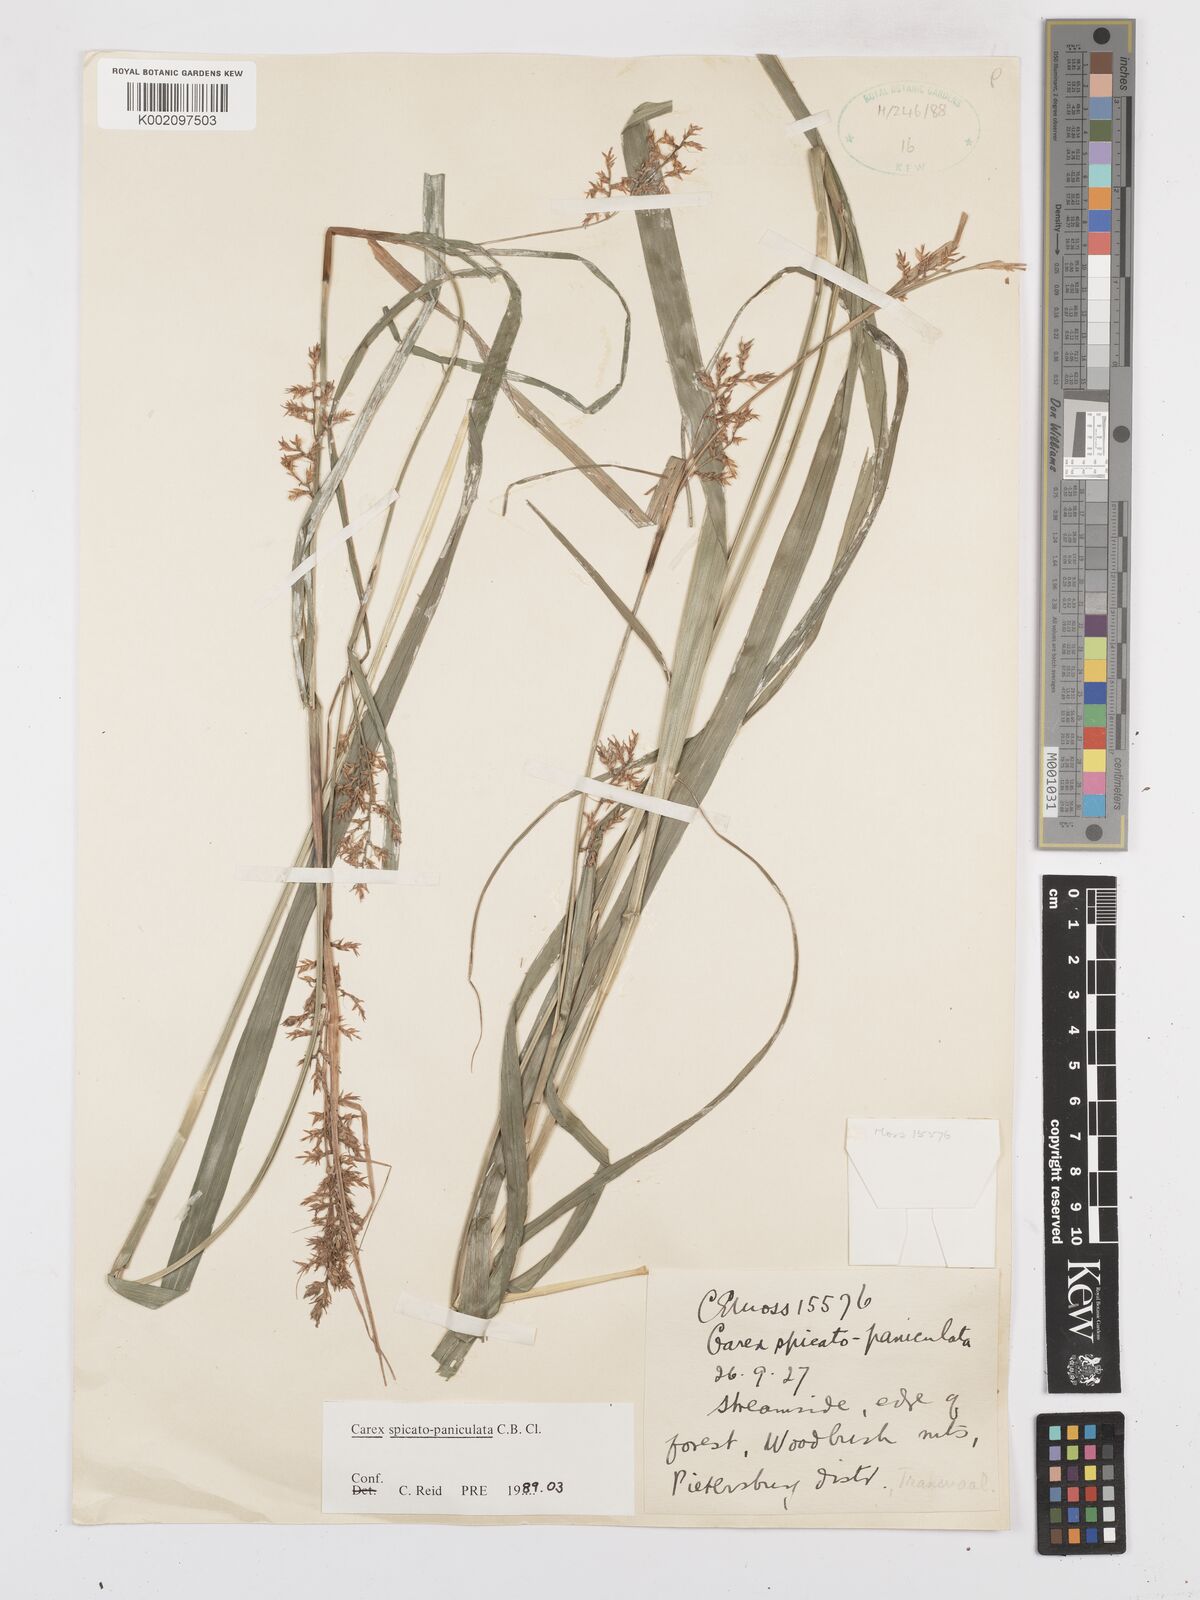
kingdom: Plantae
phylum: Tracheophyta
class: Liliopsida
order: Poales
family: Cyperaceae
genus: Carex
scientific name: Carex spicatopaniculata
